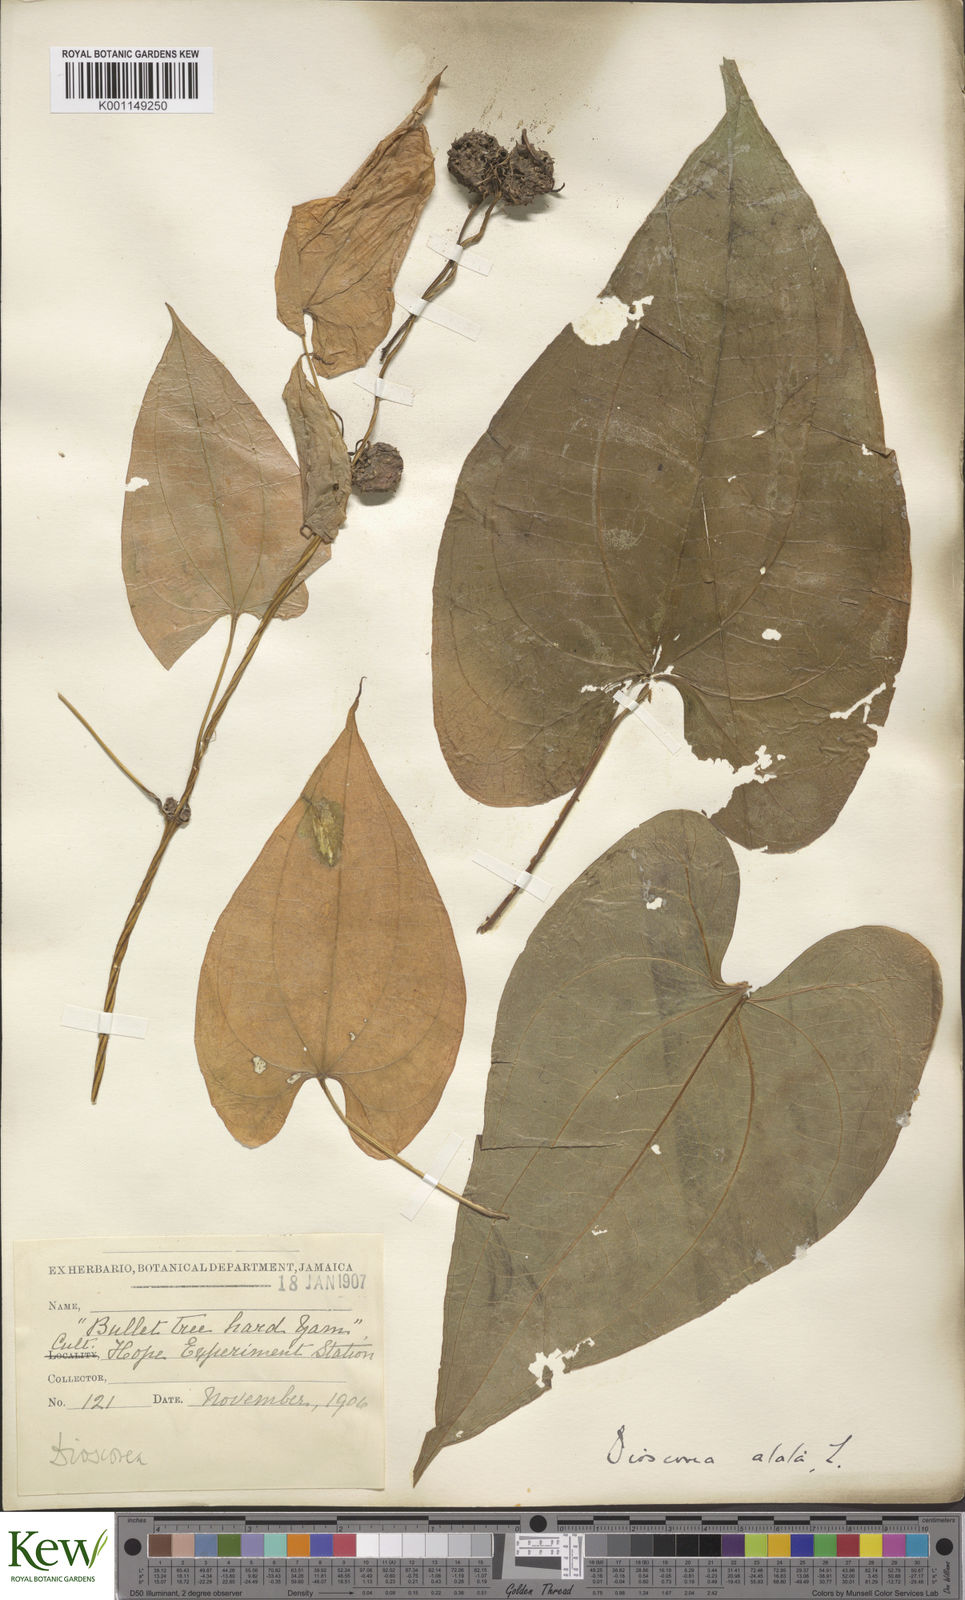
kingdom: Plantae
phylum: Tracheophyta
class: Liliopsida
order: Dioscoreales
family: Dioscoreaceae
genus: Dioscorea
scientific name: Dioscorea alata
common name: Water yam
